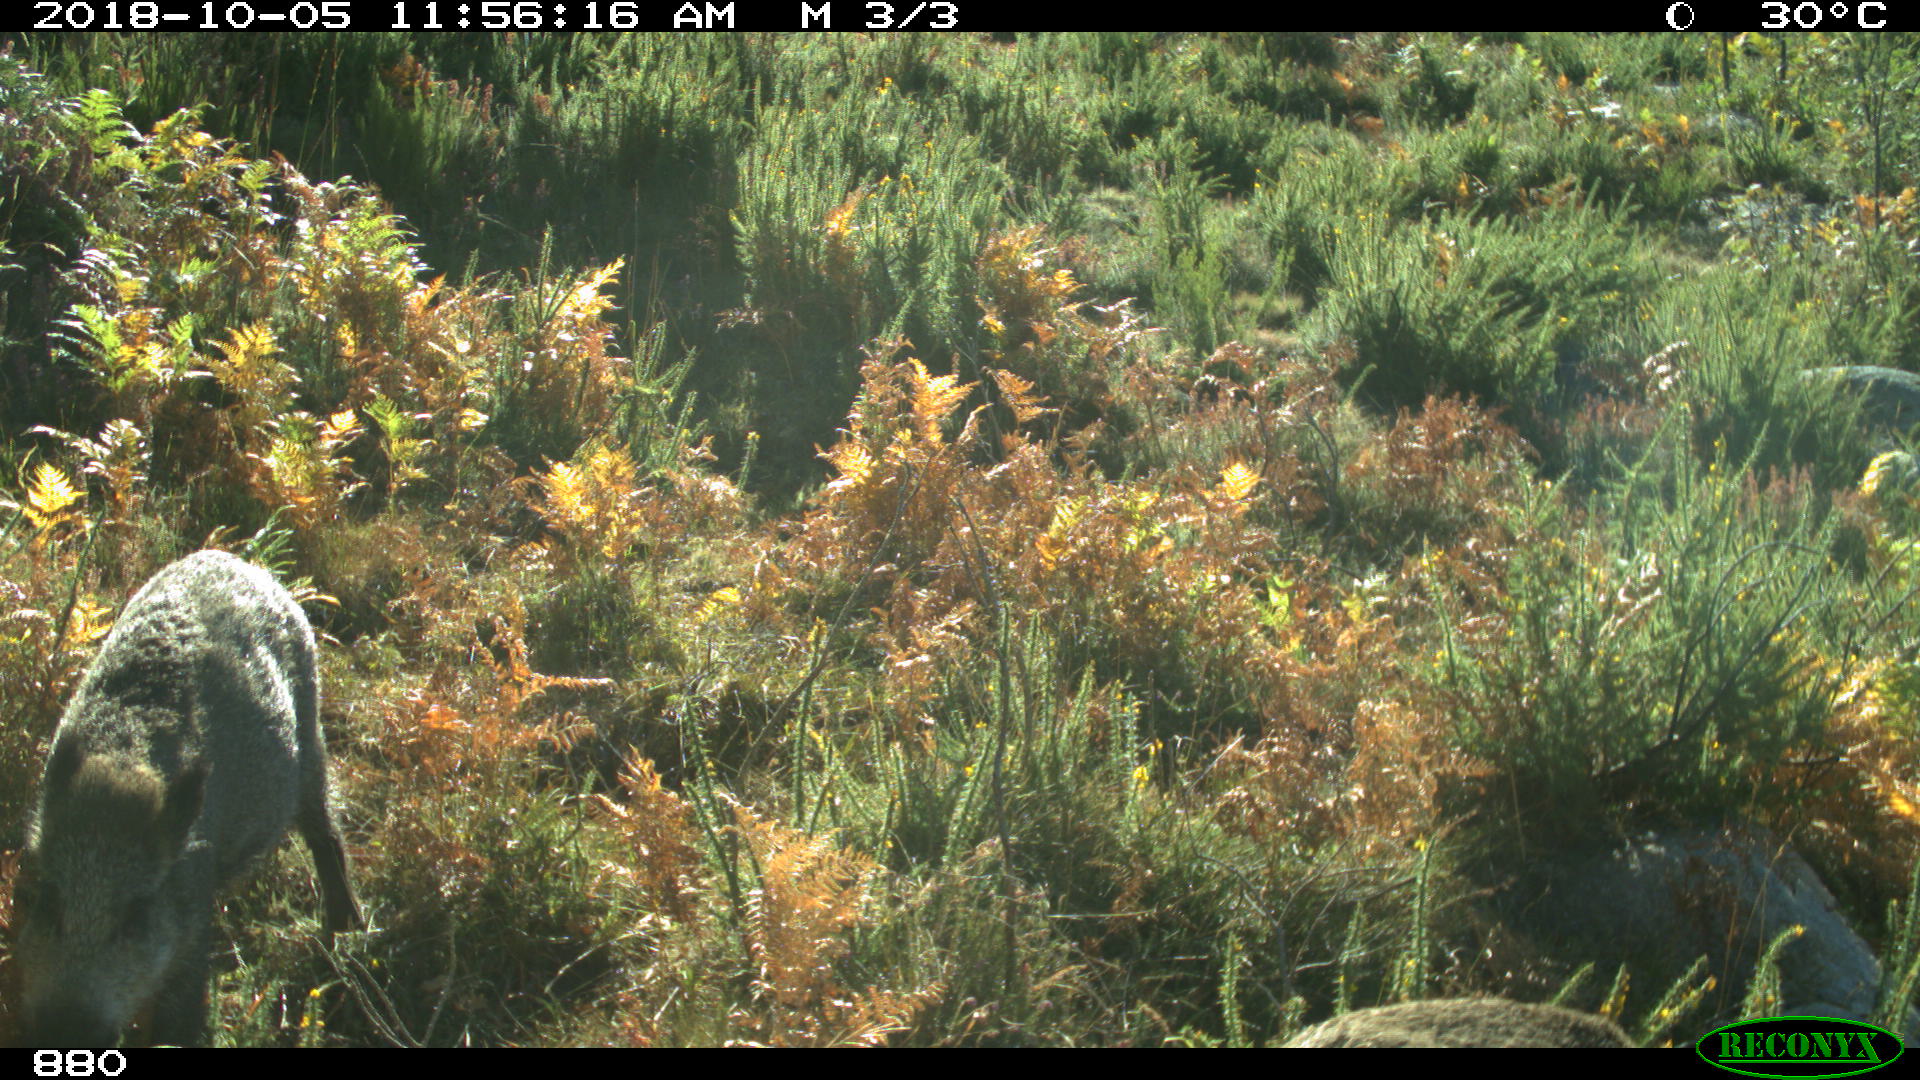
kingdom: Animalia
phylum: Chordata
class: Mammalia
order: Artiodactyla
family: Suidae
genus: Sus
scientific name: Sus scrofa
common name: Wild boar
